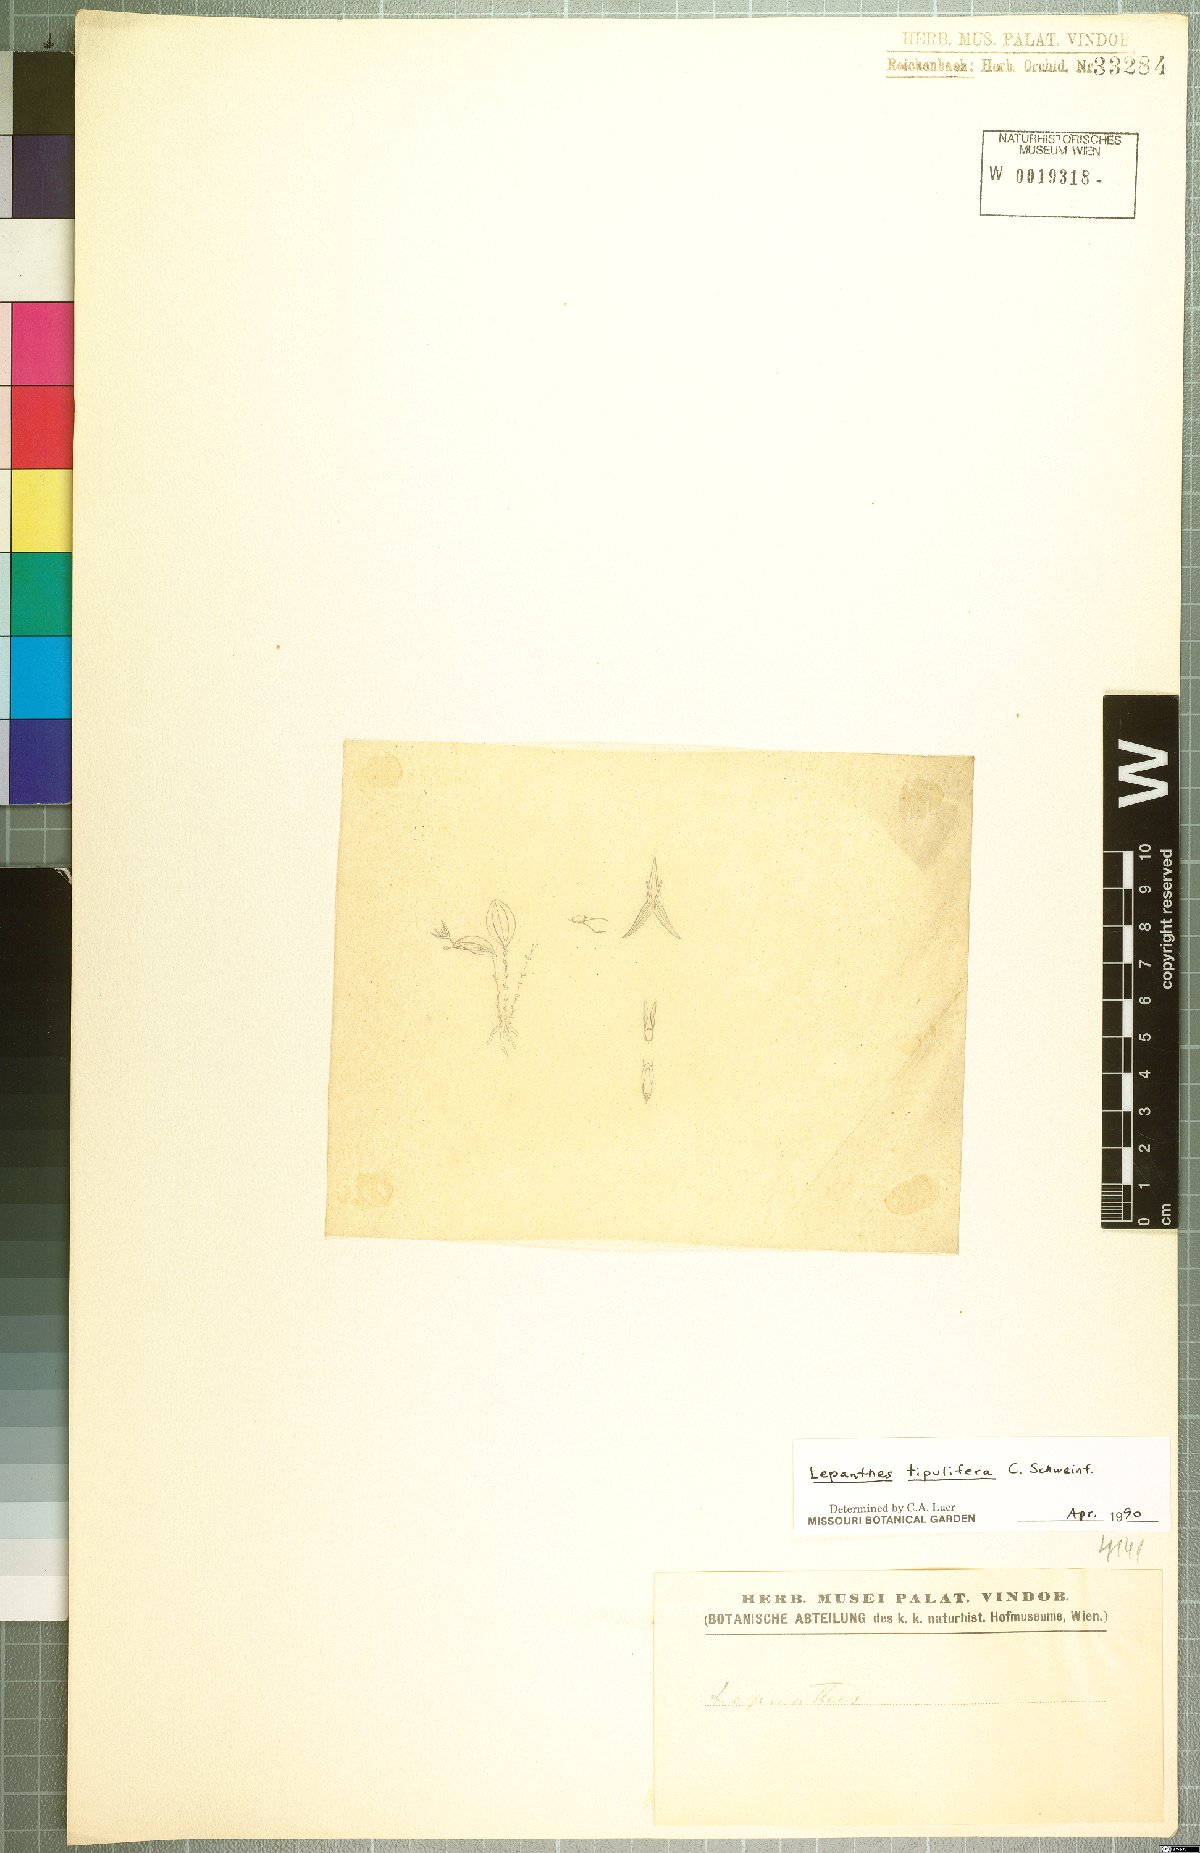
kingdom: Plantae
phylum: Tracheophyta
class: Liliopsida
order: Asparagales
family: Orchidaceae
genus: Lepanthes
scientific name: Lepanthes tipulifera
